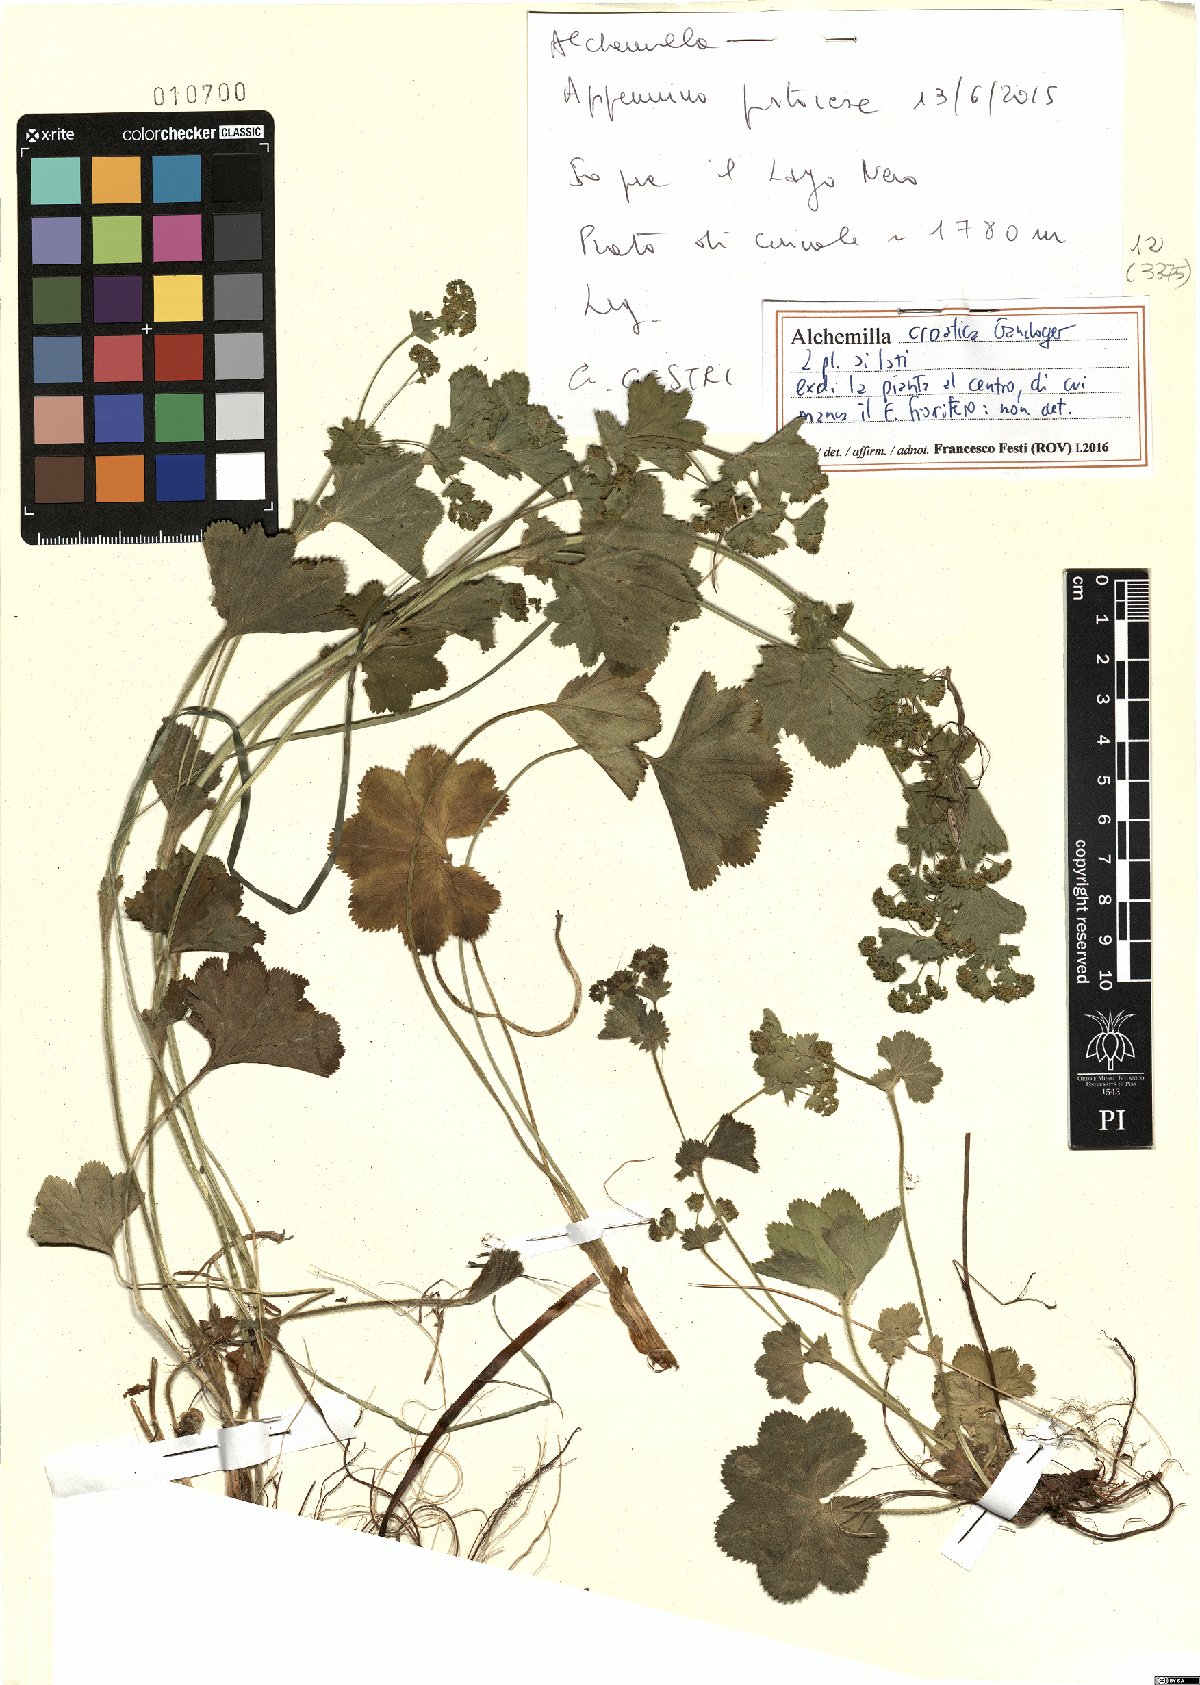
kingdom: Plantae
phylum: Tracheophyta
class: Magnoliopsida
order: Rosales
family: Rosaceae
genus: Alchemilla
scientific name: Alchemilla croatica
